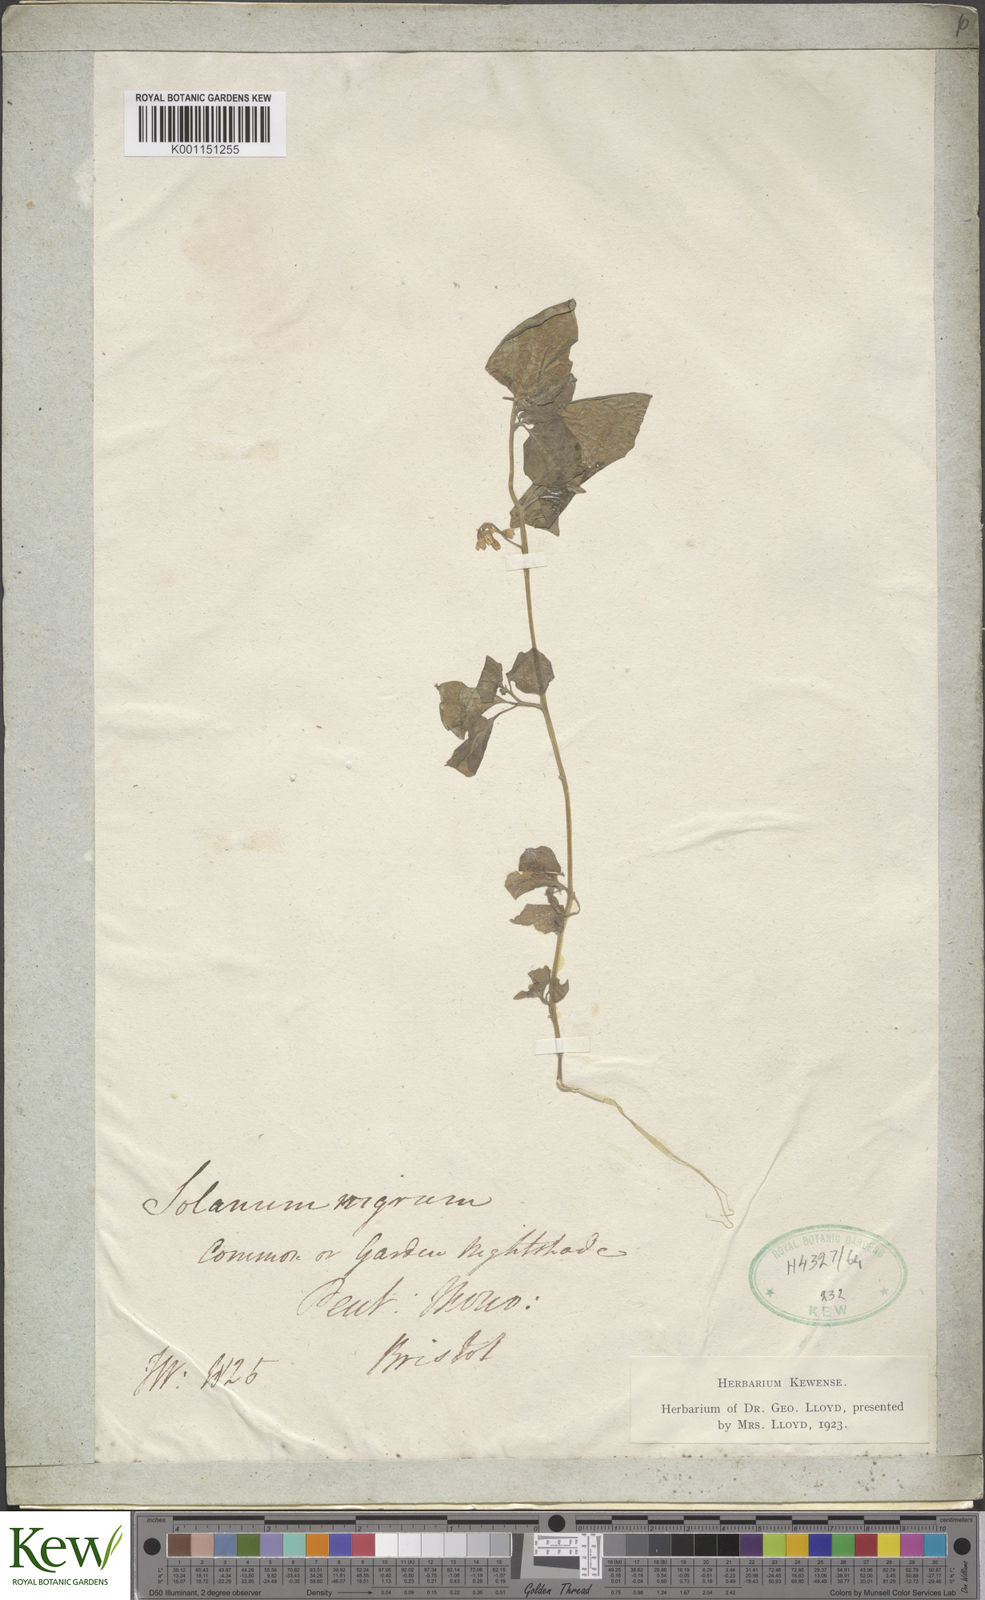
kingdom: Plantae
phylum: Tracheophyta
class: Magnoliopsida
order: Solanales
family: Solanaceae
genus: Solanum
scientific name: Solanum nigrum
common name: Black nightshade
